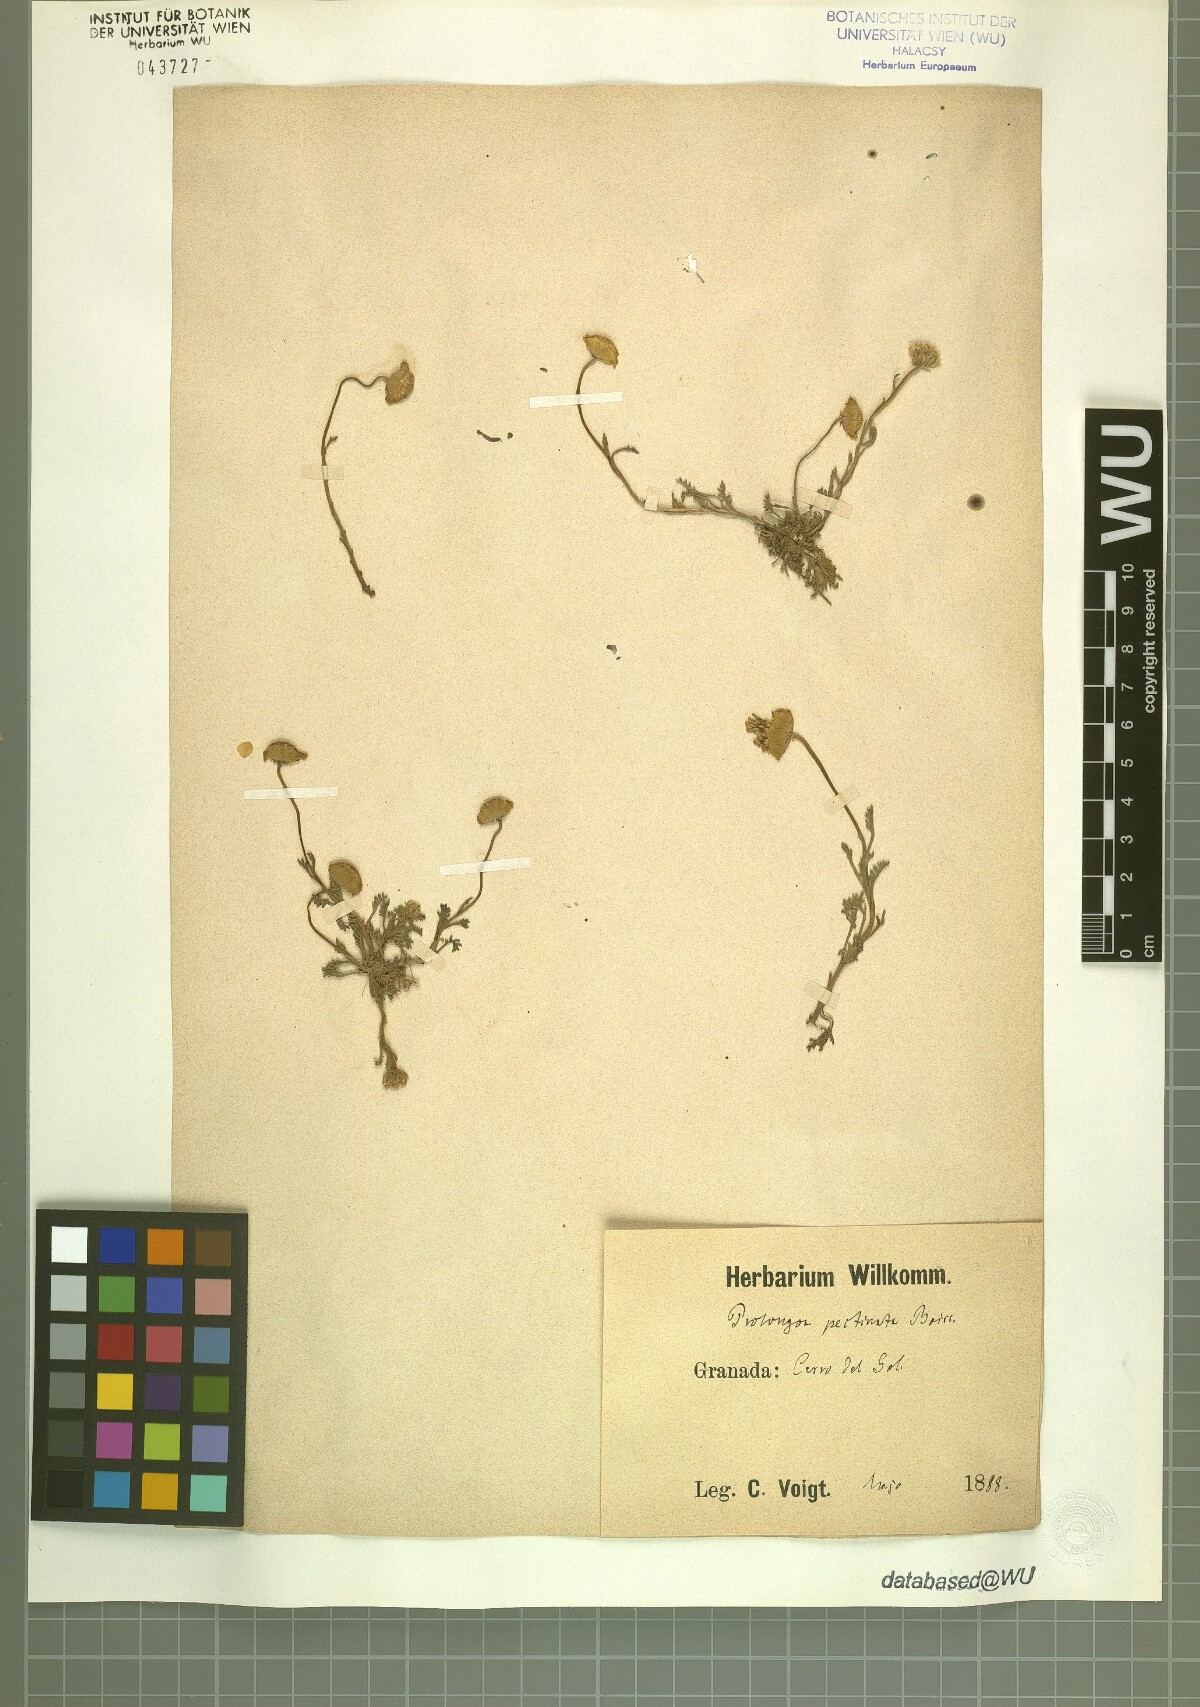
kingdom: Plantae
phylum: Tracheophyta
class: Magnoliopsida
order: Asterales
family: Asteraceae
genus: Leucanthemopsis
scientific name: Leucanthemopsis pectinata
